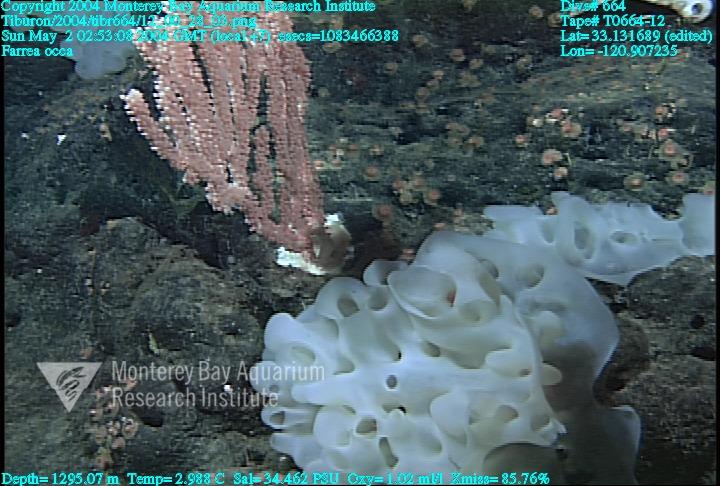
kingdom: Animalia
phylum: Porifera
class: Hexactinellida
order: Sceptrulophora
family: Farreidae
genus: Farrea
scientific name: Farrea occa
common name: Reversed glass sponge
